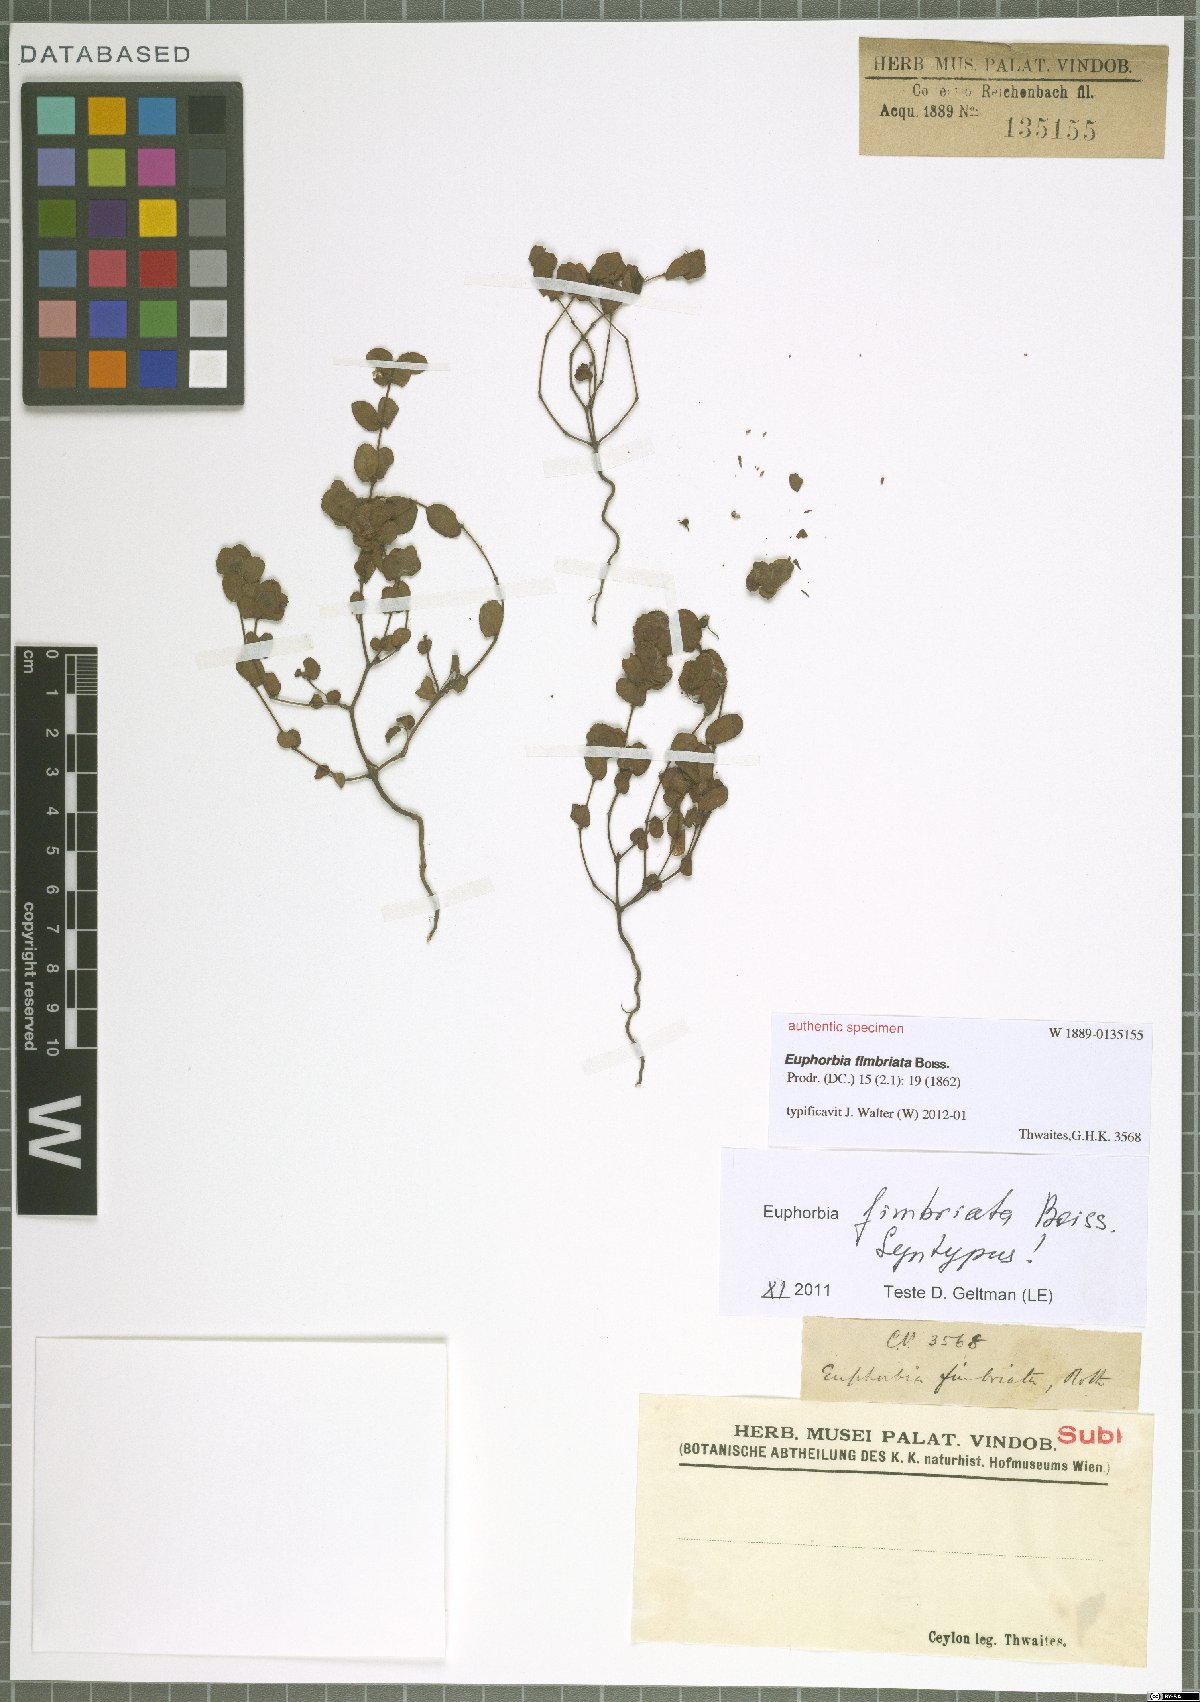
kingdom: Plantae
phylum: Tracheophyta
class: Magnoliopsida
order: Malpighiales
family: Euphorbiaceae
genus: Euphorbia
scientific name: Euphorbia khasyana
